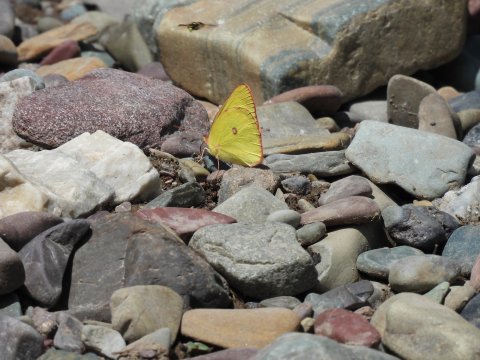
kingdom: Animalia
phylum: Arthropoda
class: Insecta
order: Lepidoptera
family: Pieridae
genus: Colias
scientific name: Colias interior
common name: Pink-edged Sulphur
